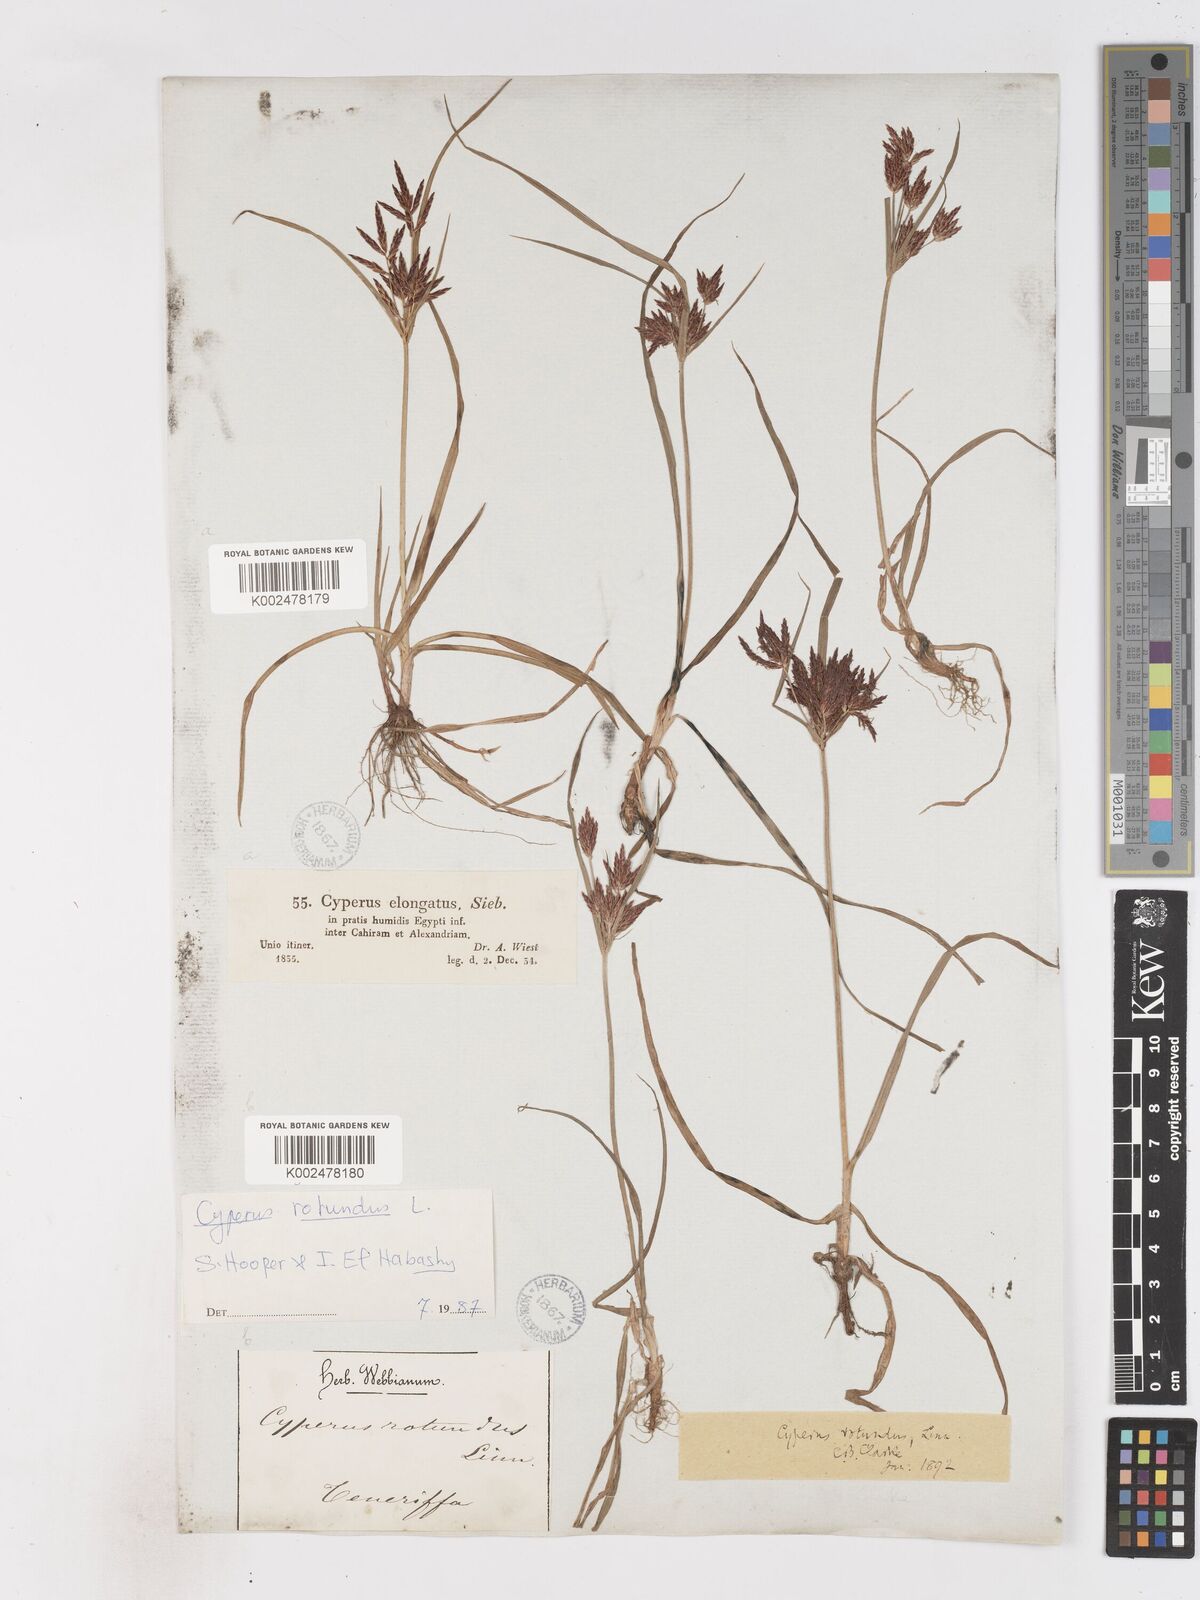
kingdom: Plantae
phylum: Tracheophyta
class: Liliopsida
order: Poales
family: Cyperaceae
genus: Cyperus
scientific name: Cyperus rotundus
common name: Nutgrass
